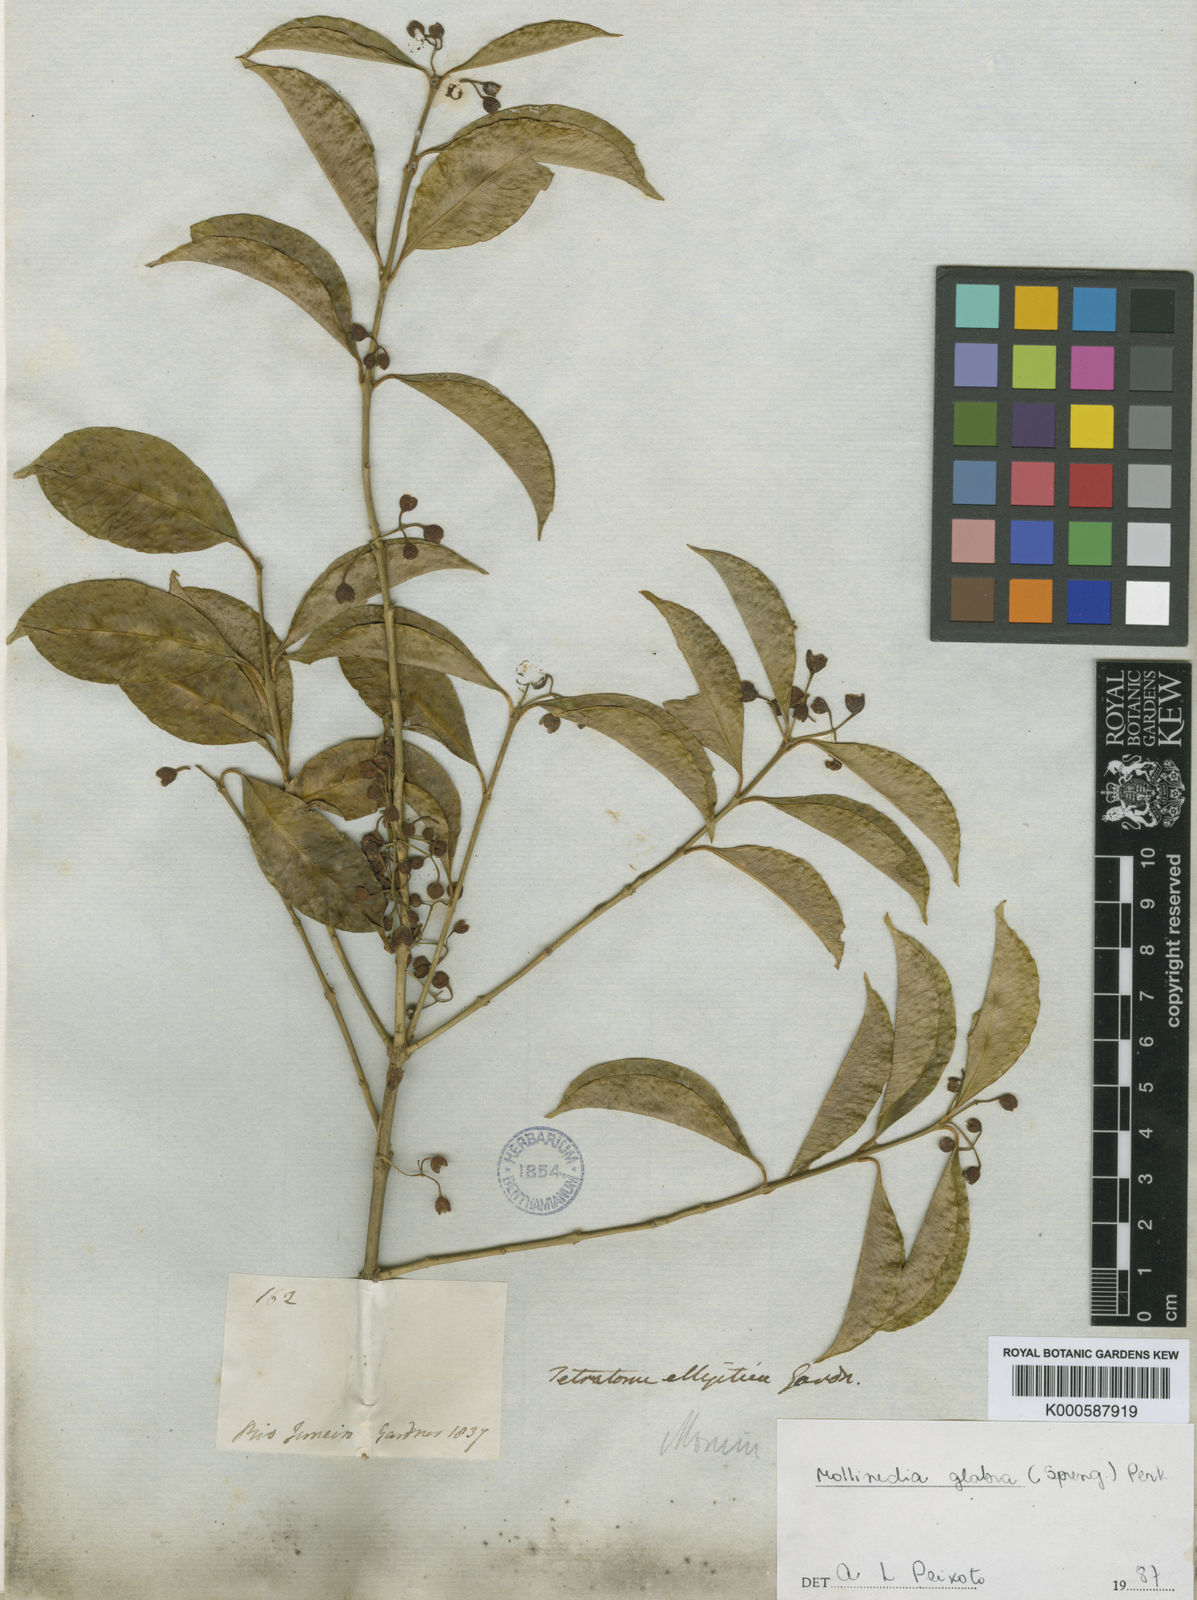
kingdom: Plantae
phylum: Tracheophyta
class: Magnoliopsida
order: Laurales
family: Monimiaceae
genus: Mollinedia
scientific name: Mollinedia elliptica
